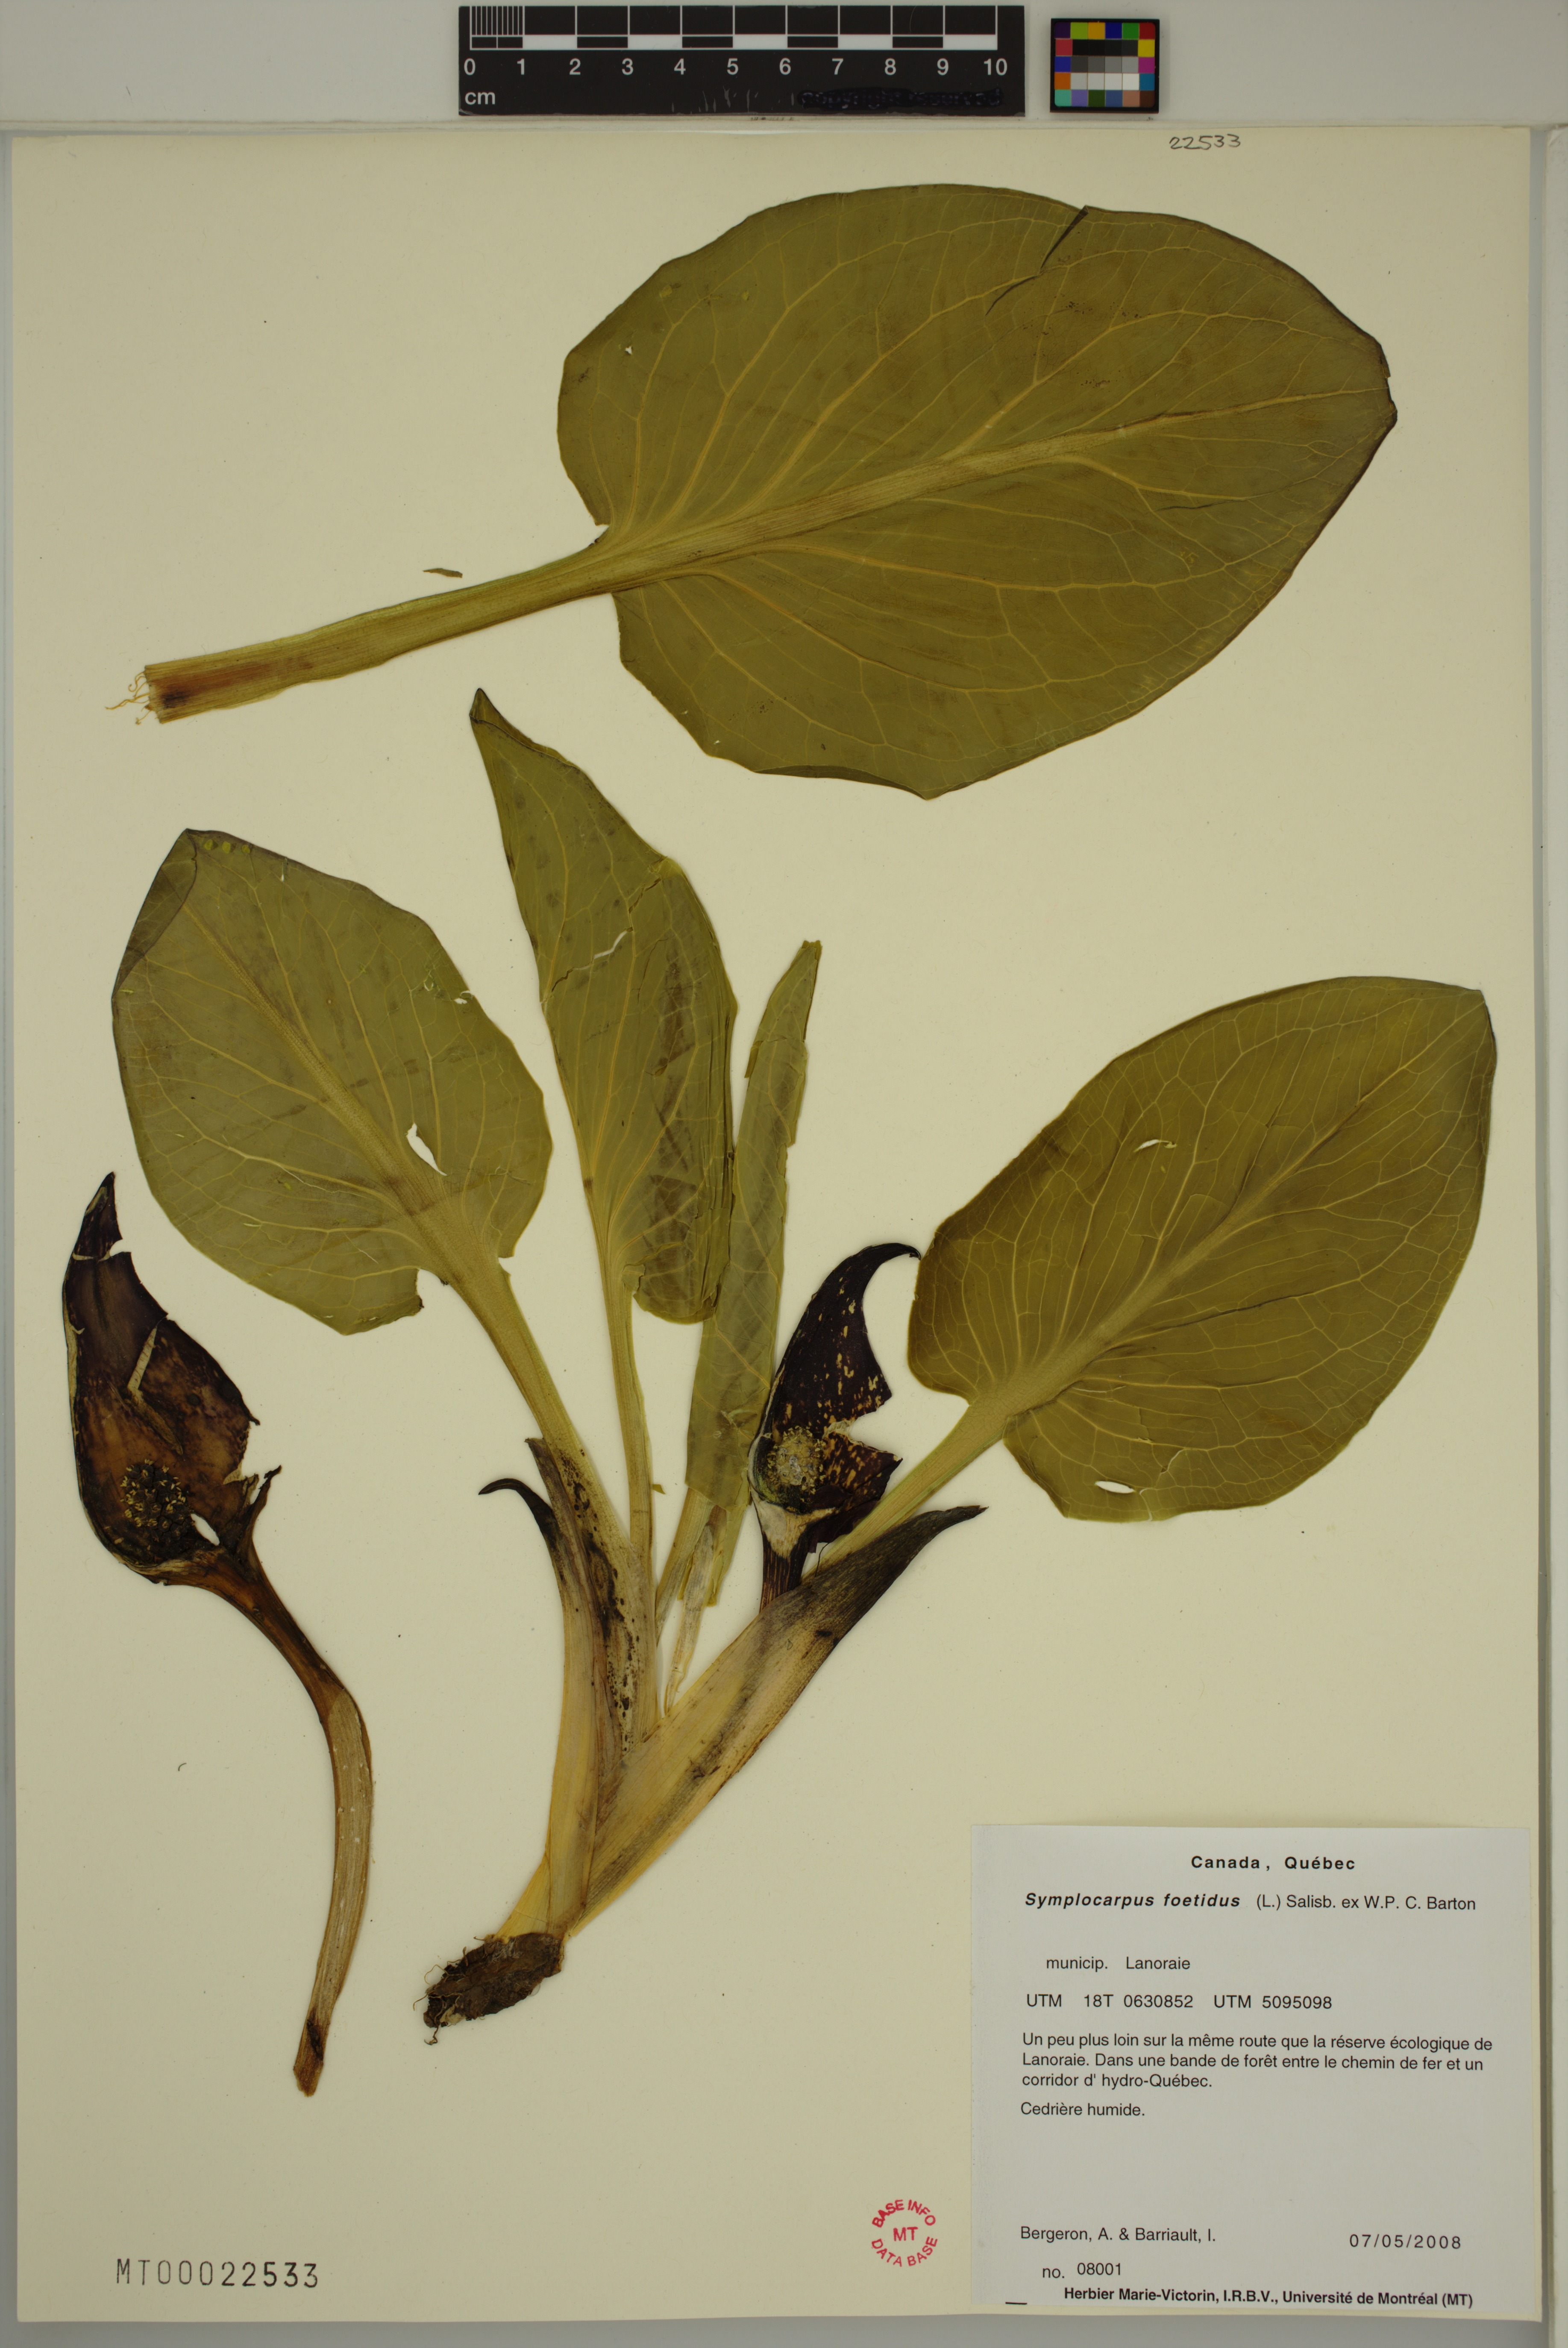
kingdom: Plantae
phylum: Tracheophyta
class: Liliopsida
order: Alismatales
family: Araceae
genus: Symplocarpus
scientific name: Symplocarpus foetidus
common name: Eastern skunk cabbage
